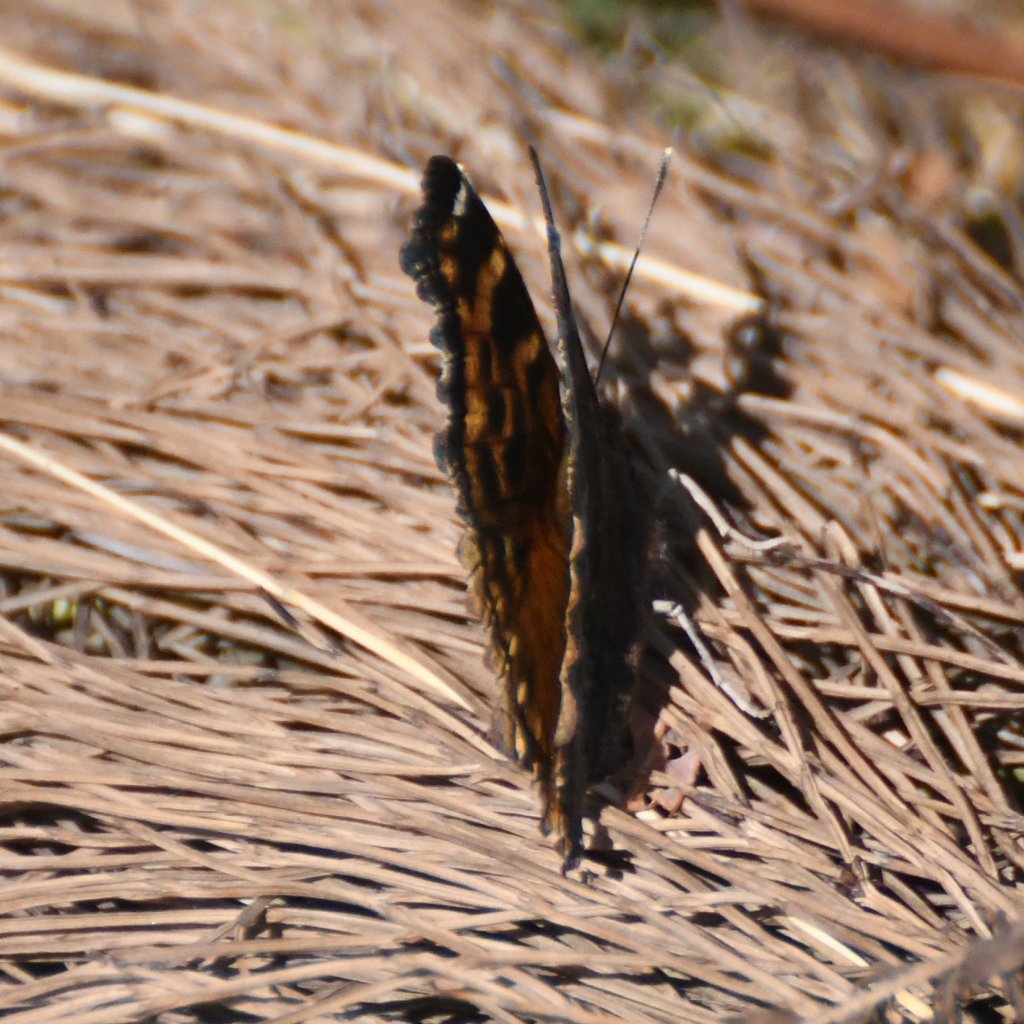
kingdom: Animalia
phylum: Arthropoda
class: Insecta
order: Lepidoptera
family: Nymphalidae
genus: Polygonia
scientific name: Polygonia vaualbum
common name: Compton Tortoiseshell
